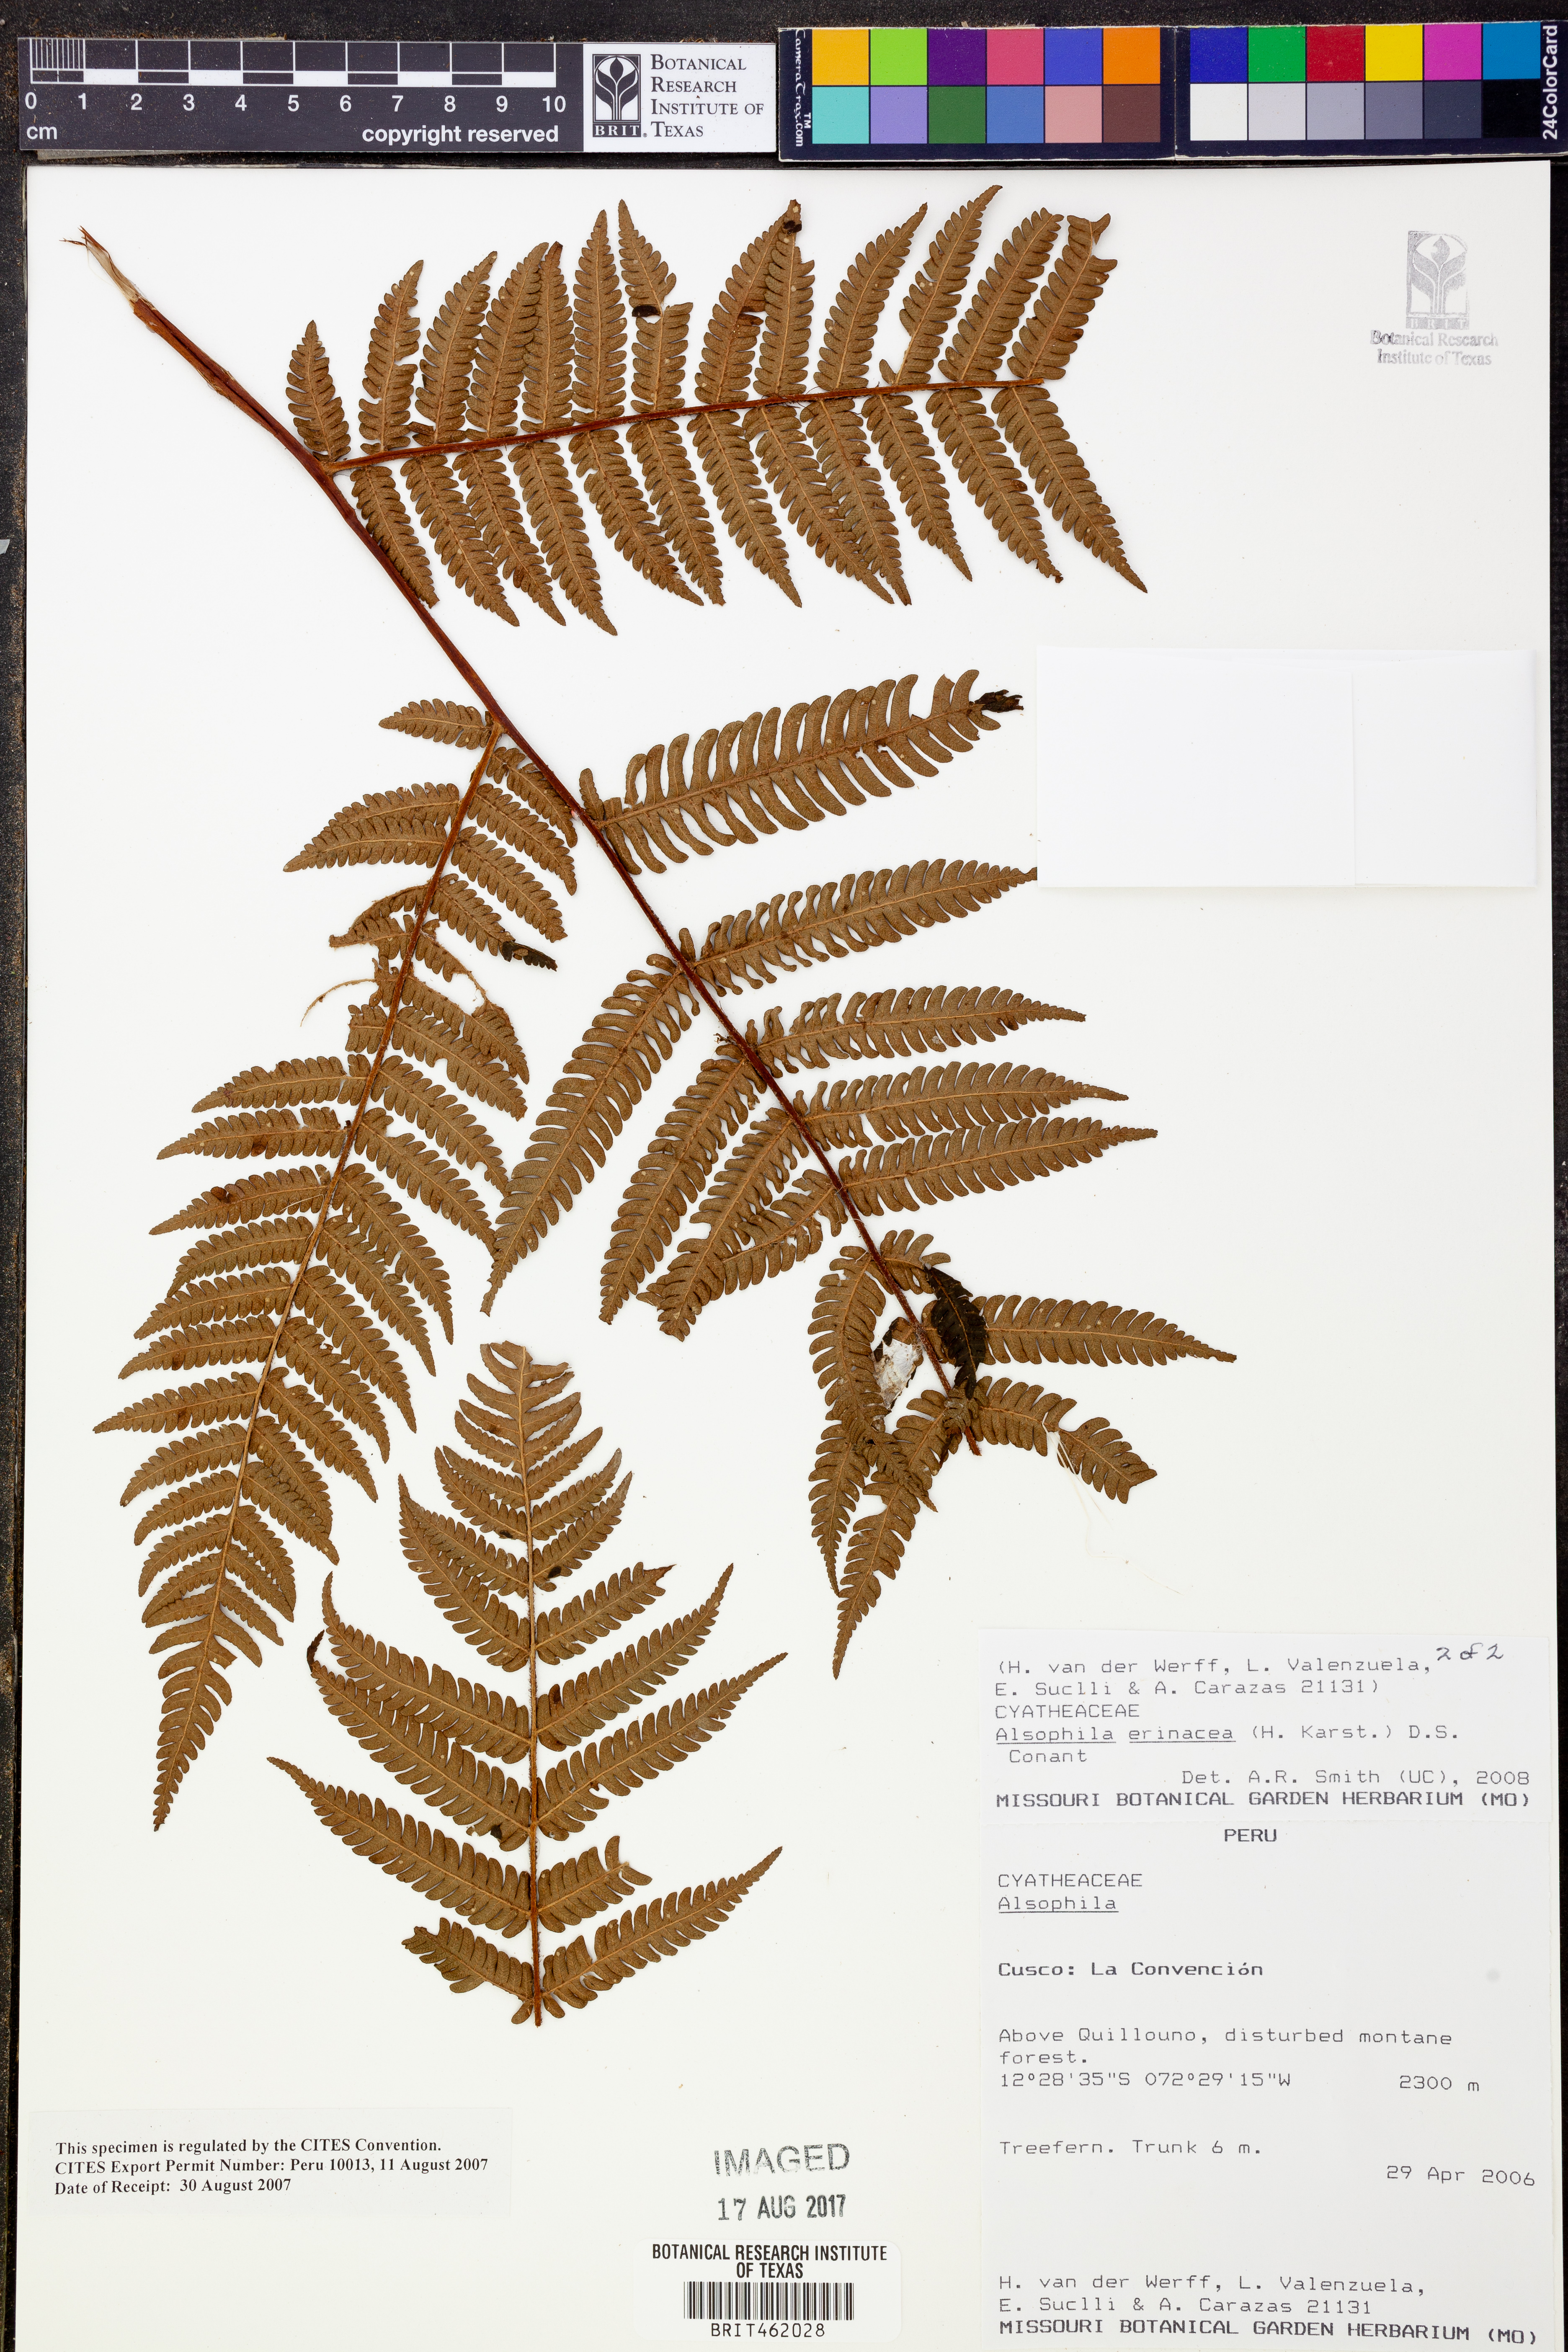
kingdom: Plantae
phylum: Tracheophyta
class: Polypodiopsida
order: Cyatheales
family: Cyatheaceae
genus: Alsophila
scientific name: Alsophila erinacea
